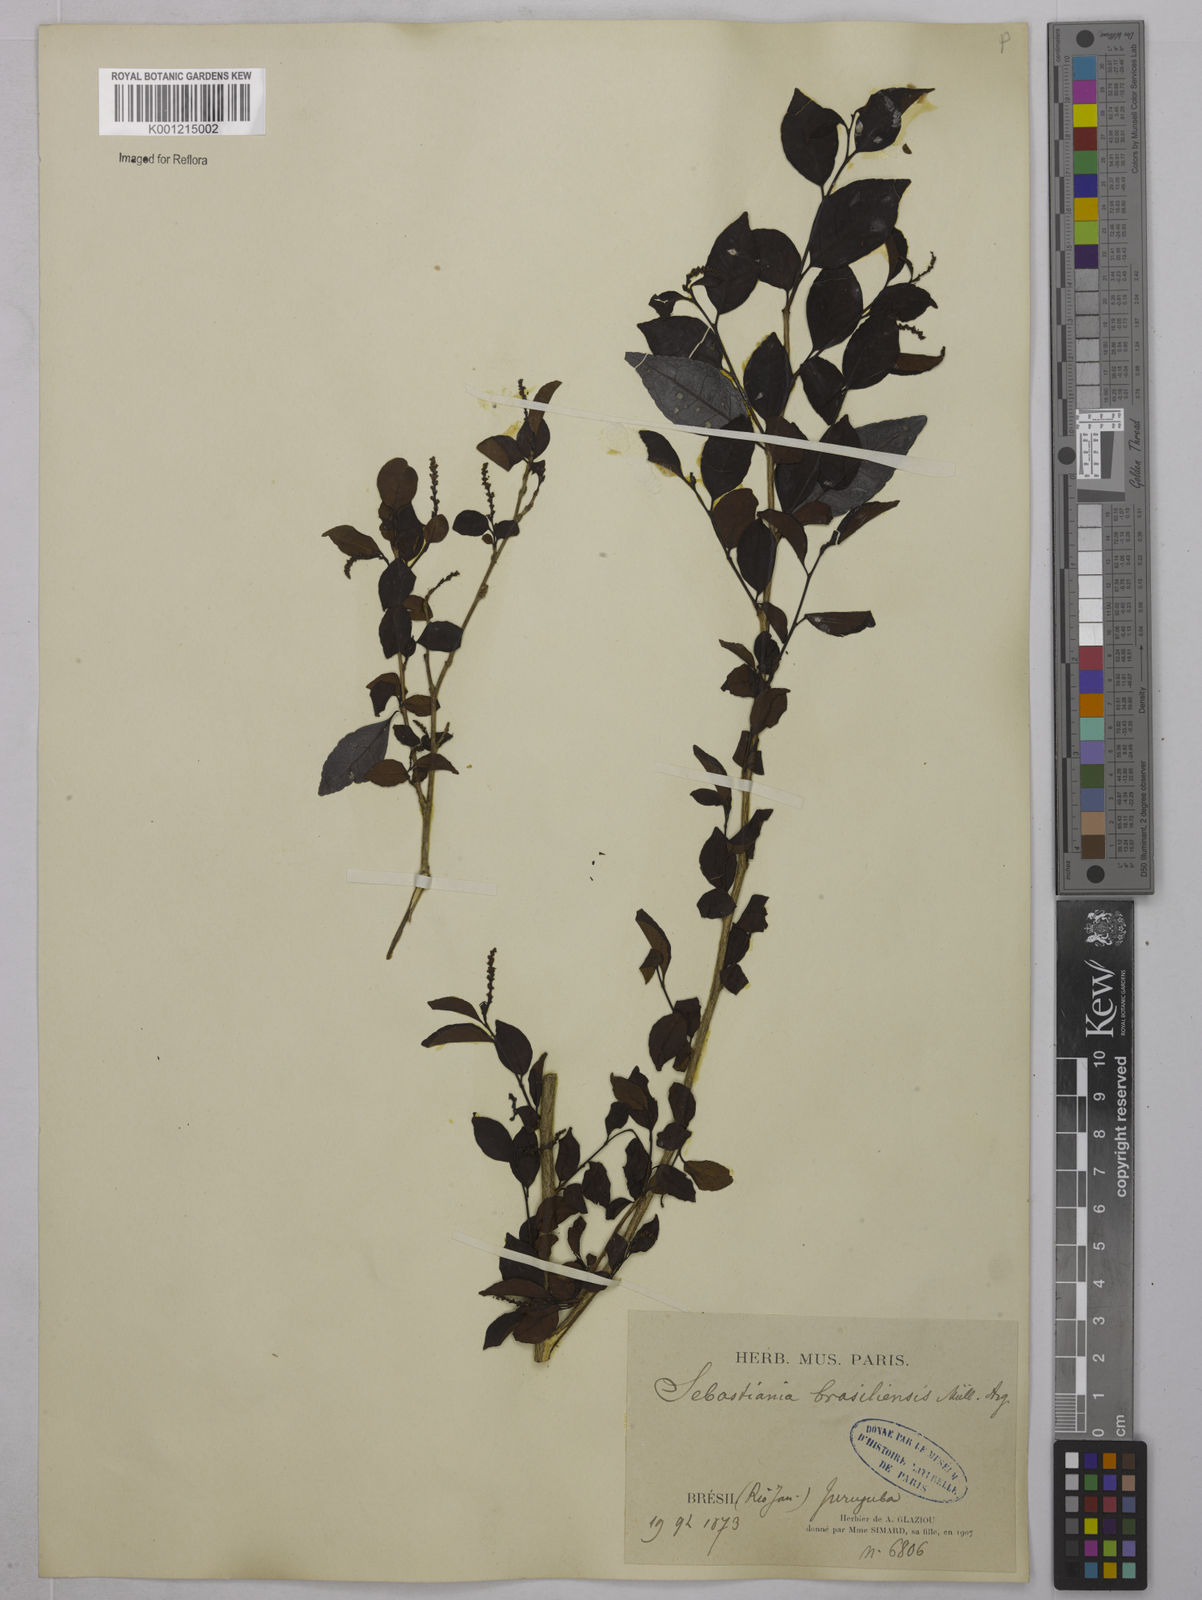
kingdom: Plantae
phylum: Tracheophyta
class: Magnoliopsida
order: Malpighiales
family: Euphorbiaceae
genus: Sebastiania
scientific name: Sebastiania brasiliensis
